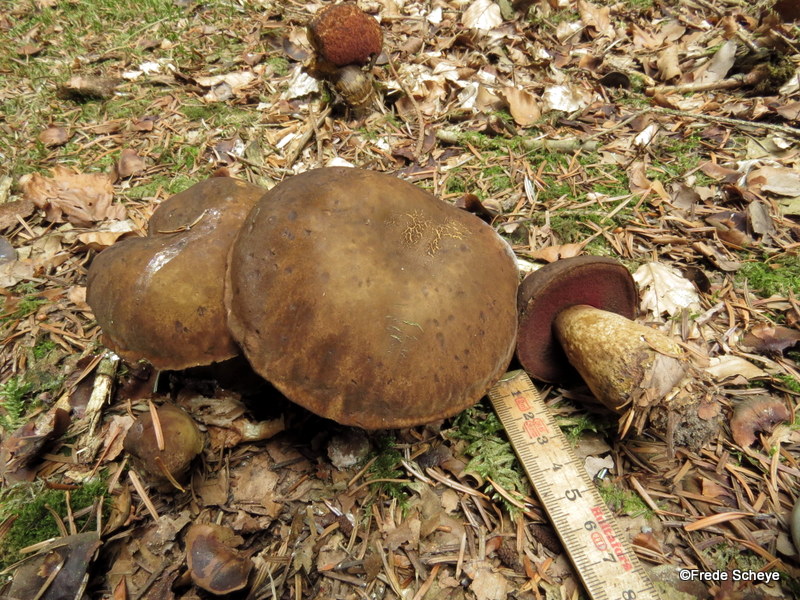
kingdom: Fungi
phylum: Basidiomycota
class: Agaricomycetes
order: Boletales
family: Boletaceae
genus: Neoboletus
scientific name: Neoboletus erythropus
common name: punktstokket indigorørhat
